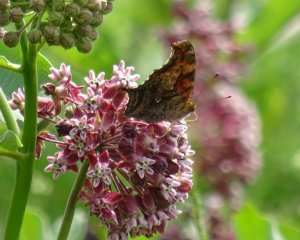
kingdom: Animalia
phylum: Arthropoda
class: Insecta
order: Lepidoptera
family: Nymphalidae
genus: Polygonia
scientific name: Polygonia interrogationis
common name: Question Mark
